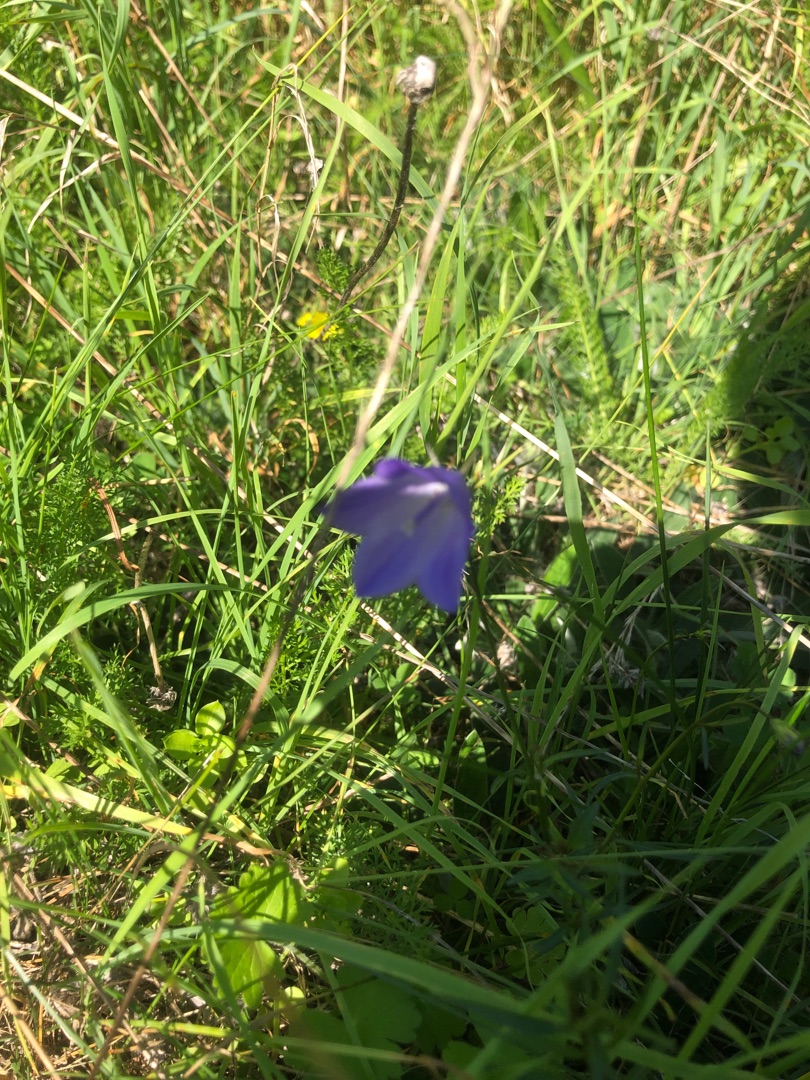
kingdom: Plantae
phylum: Tracheophyta
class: Magnoliopsida
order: Asterales
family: Campanulaceae
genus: Campanula
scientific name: Campanula rotundifolia
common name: Liden klokke
